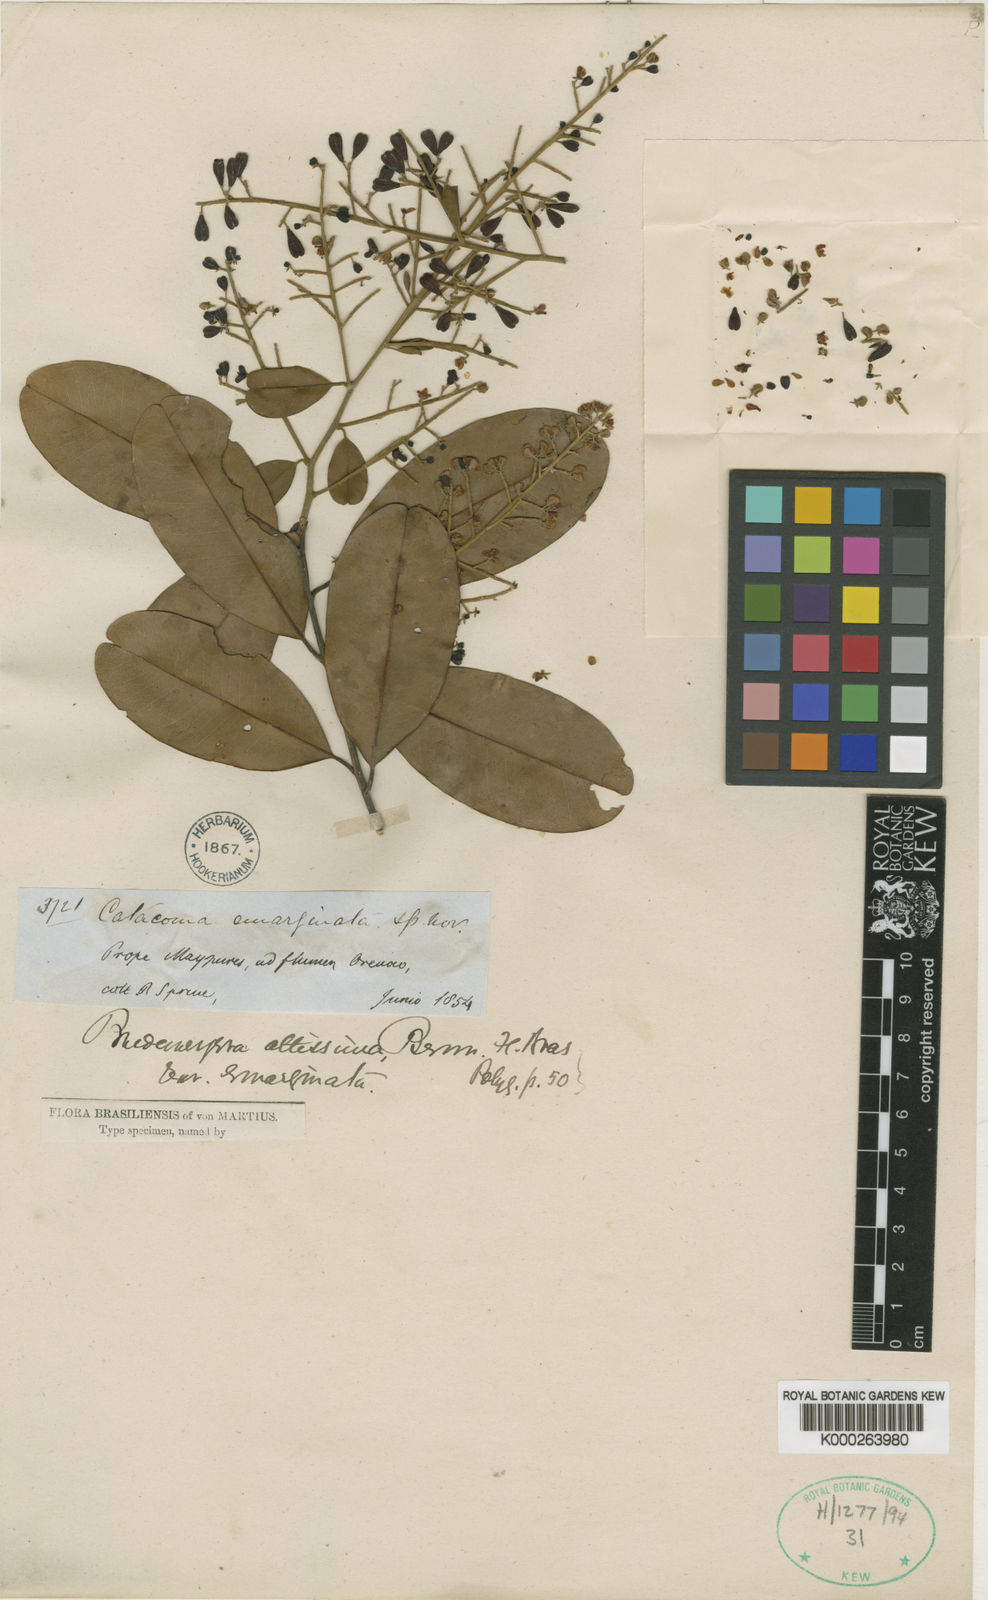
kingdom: Plantae
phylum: Tracheophyta
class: Magnoliopsida
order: Fabales
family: Polygalaceae
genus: Bredemeyera
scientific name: Bredemeyera divaricata
